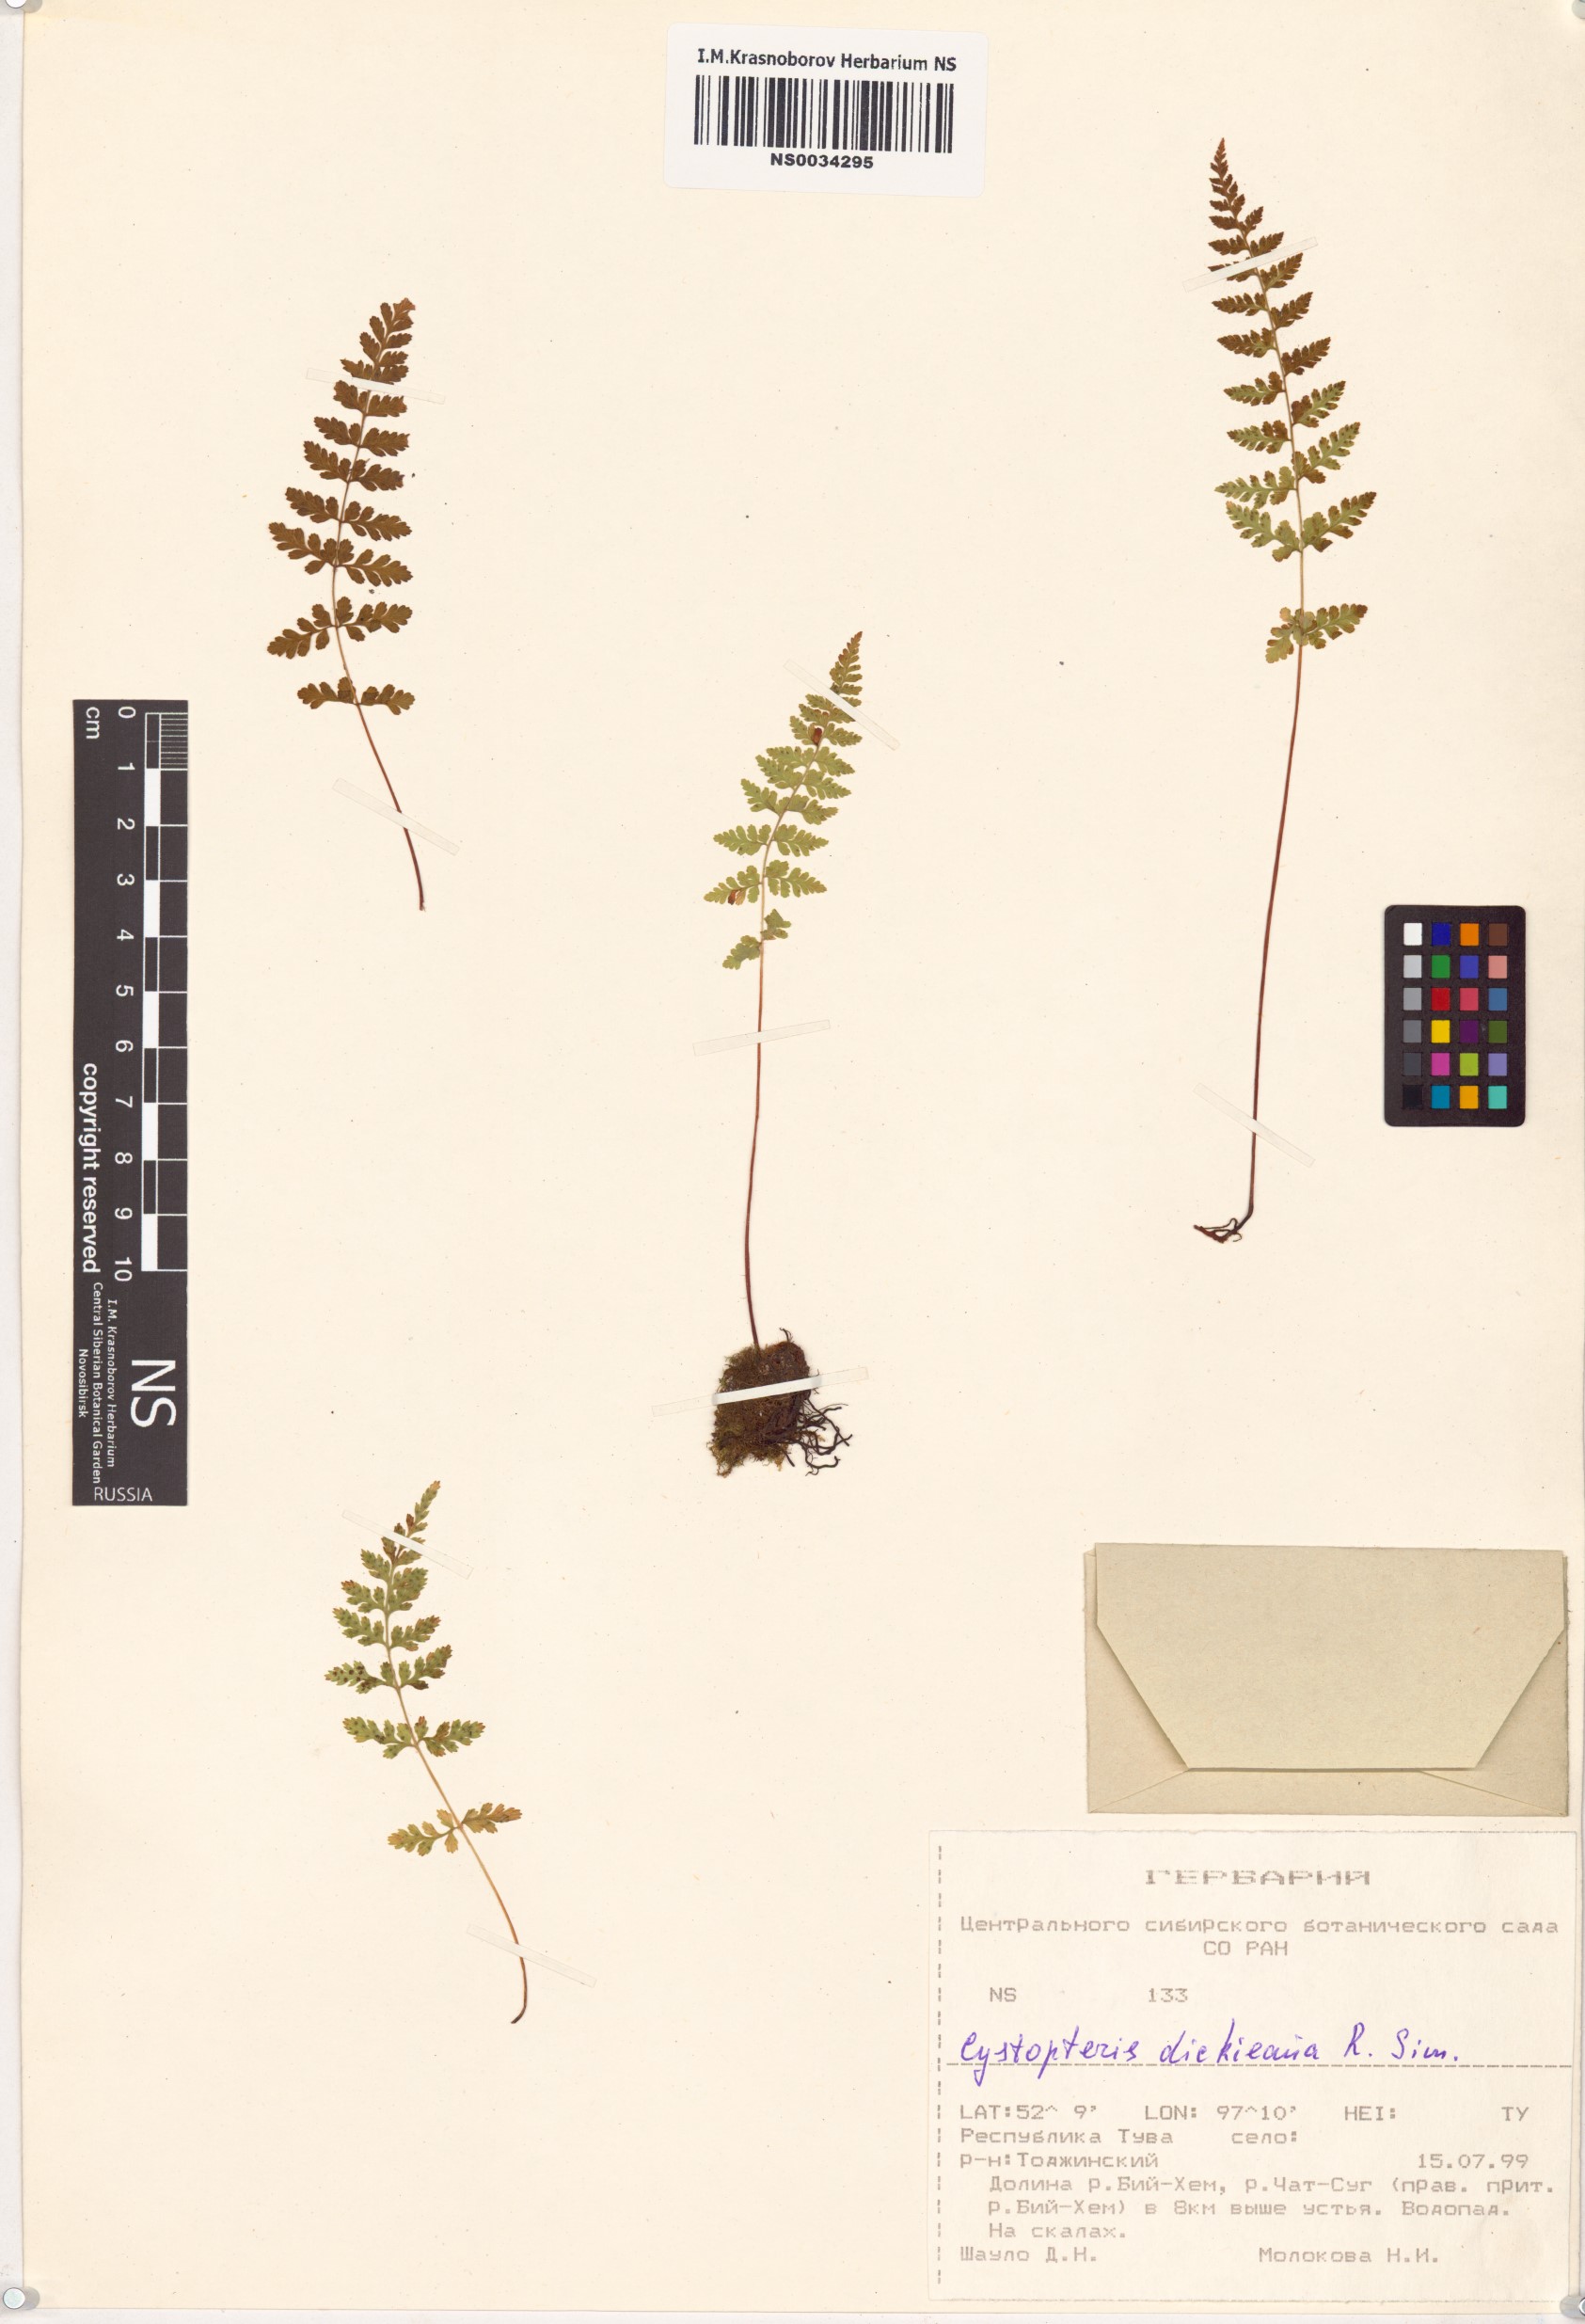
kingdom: Plantae
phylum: Tracheophyta
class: Polypodiopsida
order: Polypodiales
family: Cystopteridaceae
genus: Cystopteris
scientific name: Cystopteris dickieana
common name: Dickie's bladder-fern
